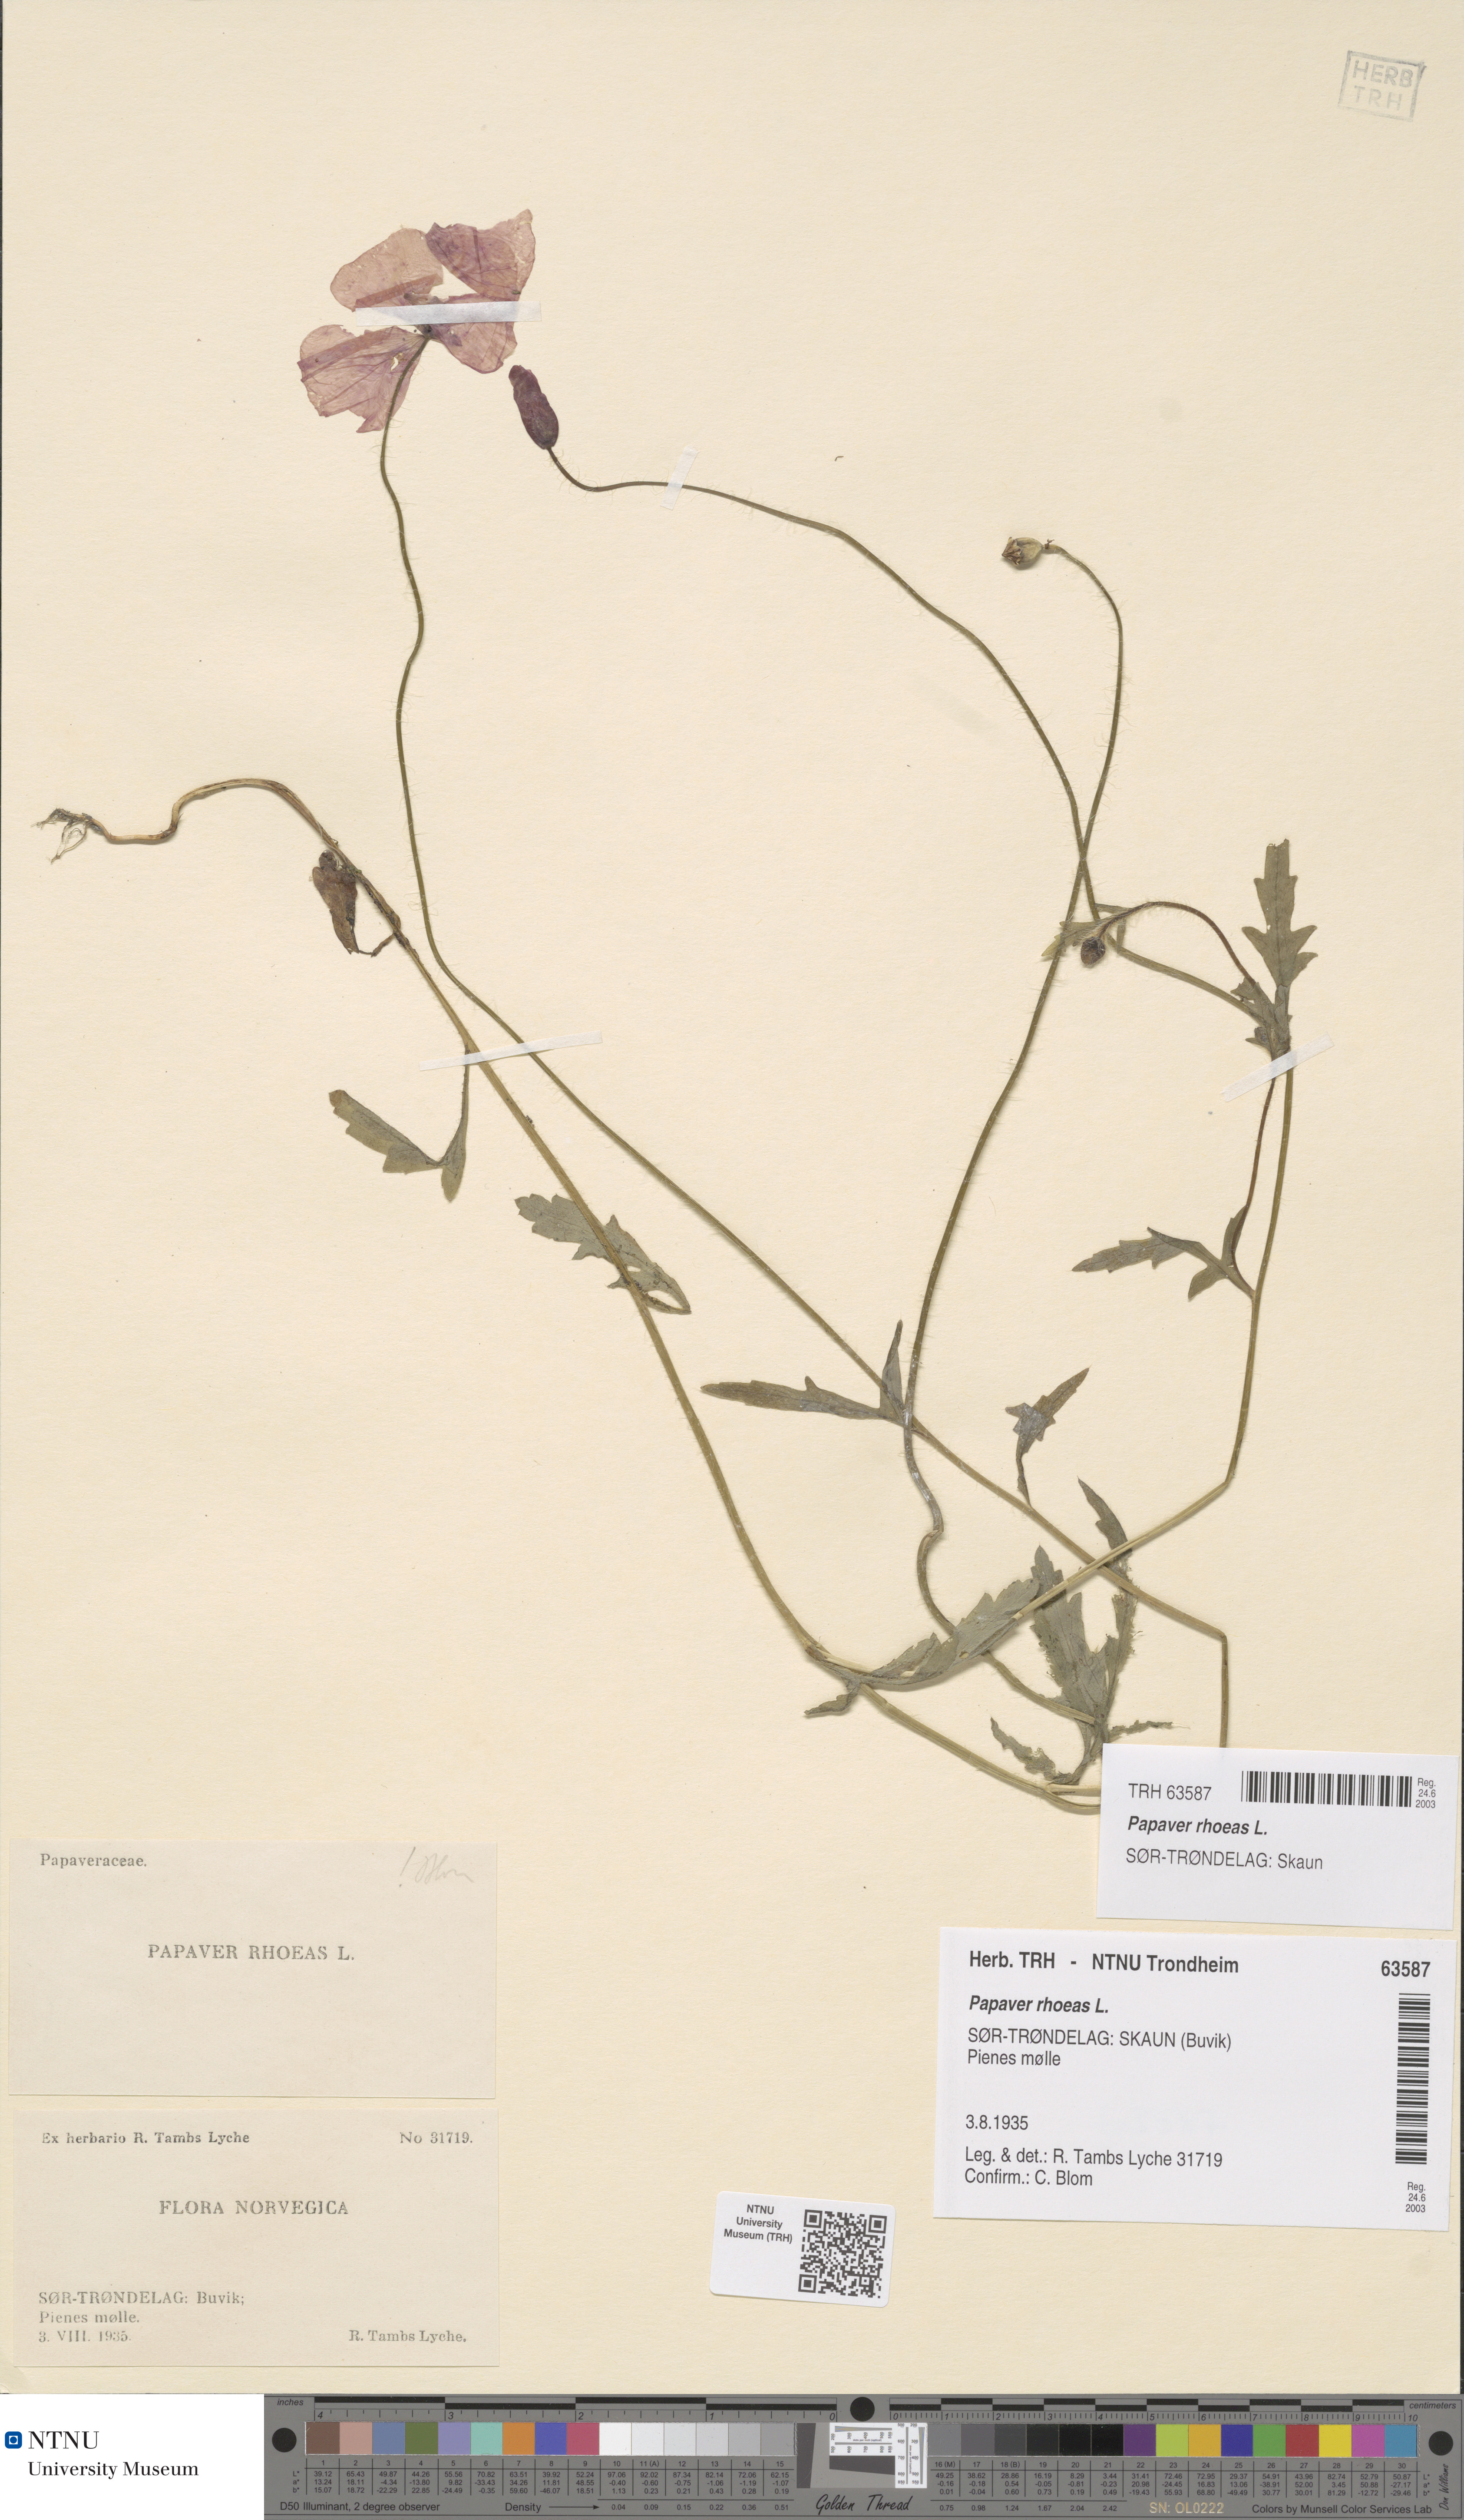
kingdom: Plantae
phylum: Tracheophyta
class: Magnoliopsida
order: Ranunculales
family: Papaveraceae
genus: Papaver
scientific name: Papaver rhoeas
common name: Corn poppy
